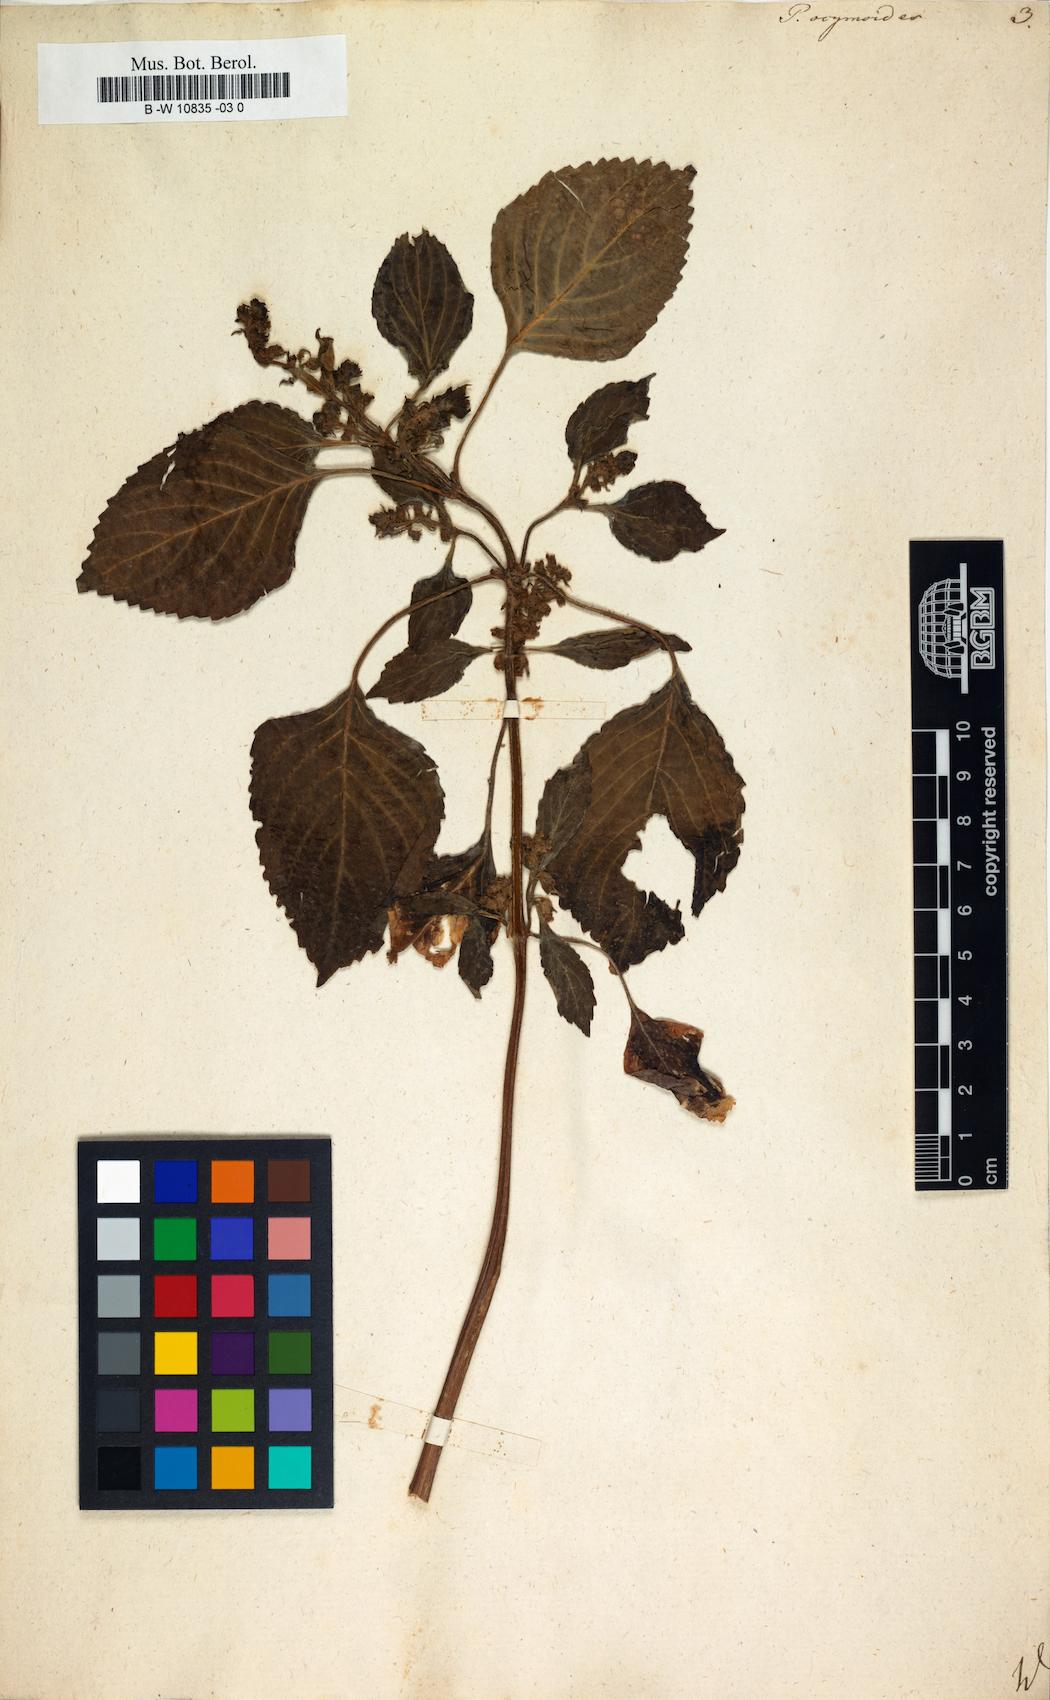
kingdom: Plantae
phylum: Tracheophyta
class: Magnoliopsida
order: Lamiales
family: Lamiaceae
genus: Perilla
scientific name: Perilla frutescens
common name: Perilla
